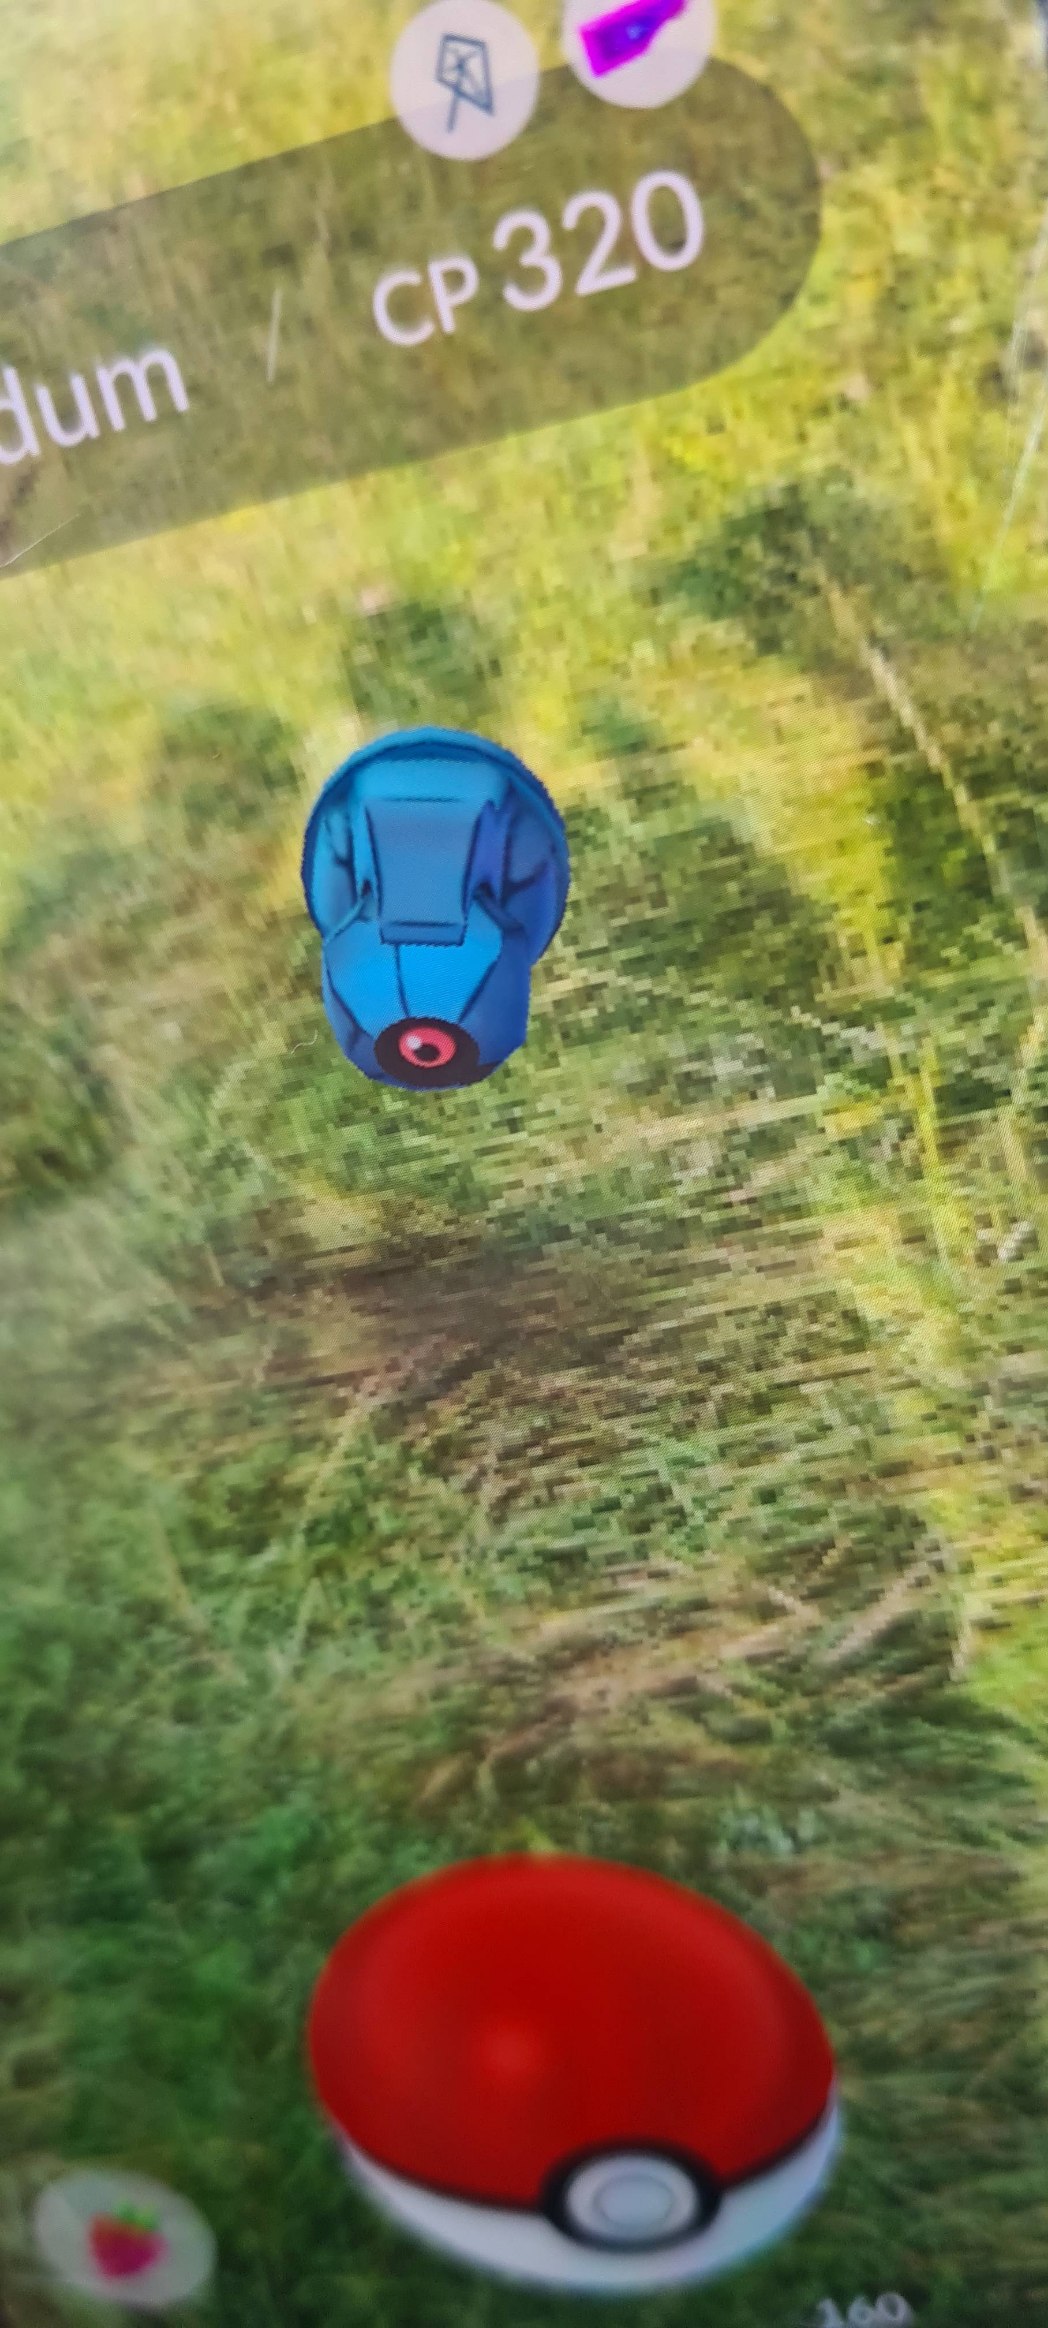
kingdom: Animalia
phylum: Chordata
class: Aves
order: Galliformes
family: Phasianidae
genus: Phasianus
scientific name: Phasianus colchicus
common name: Fasan
